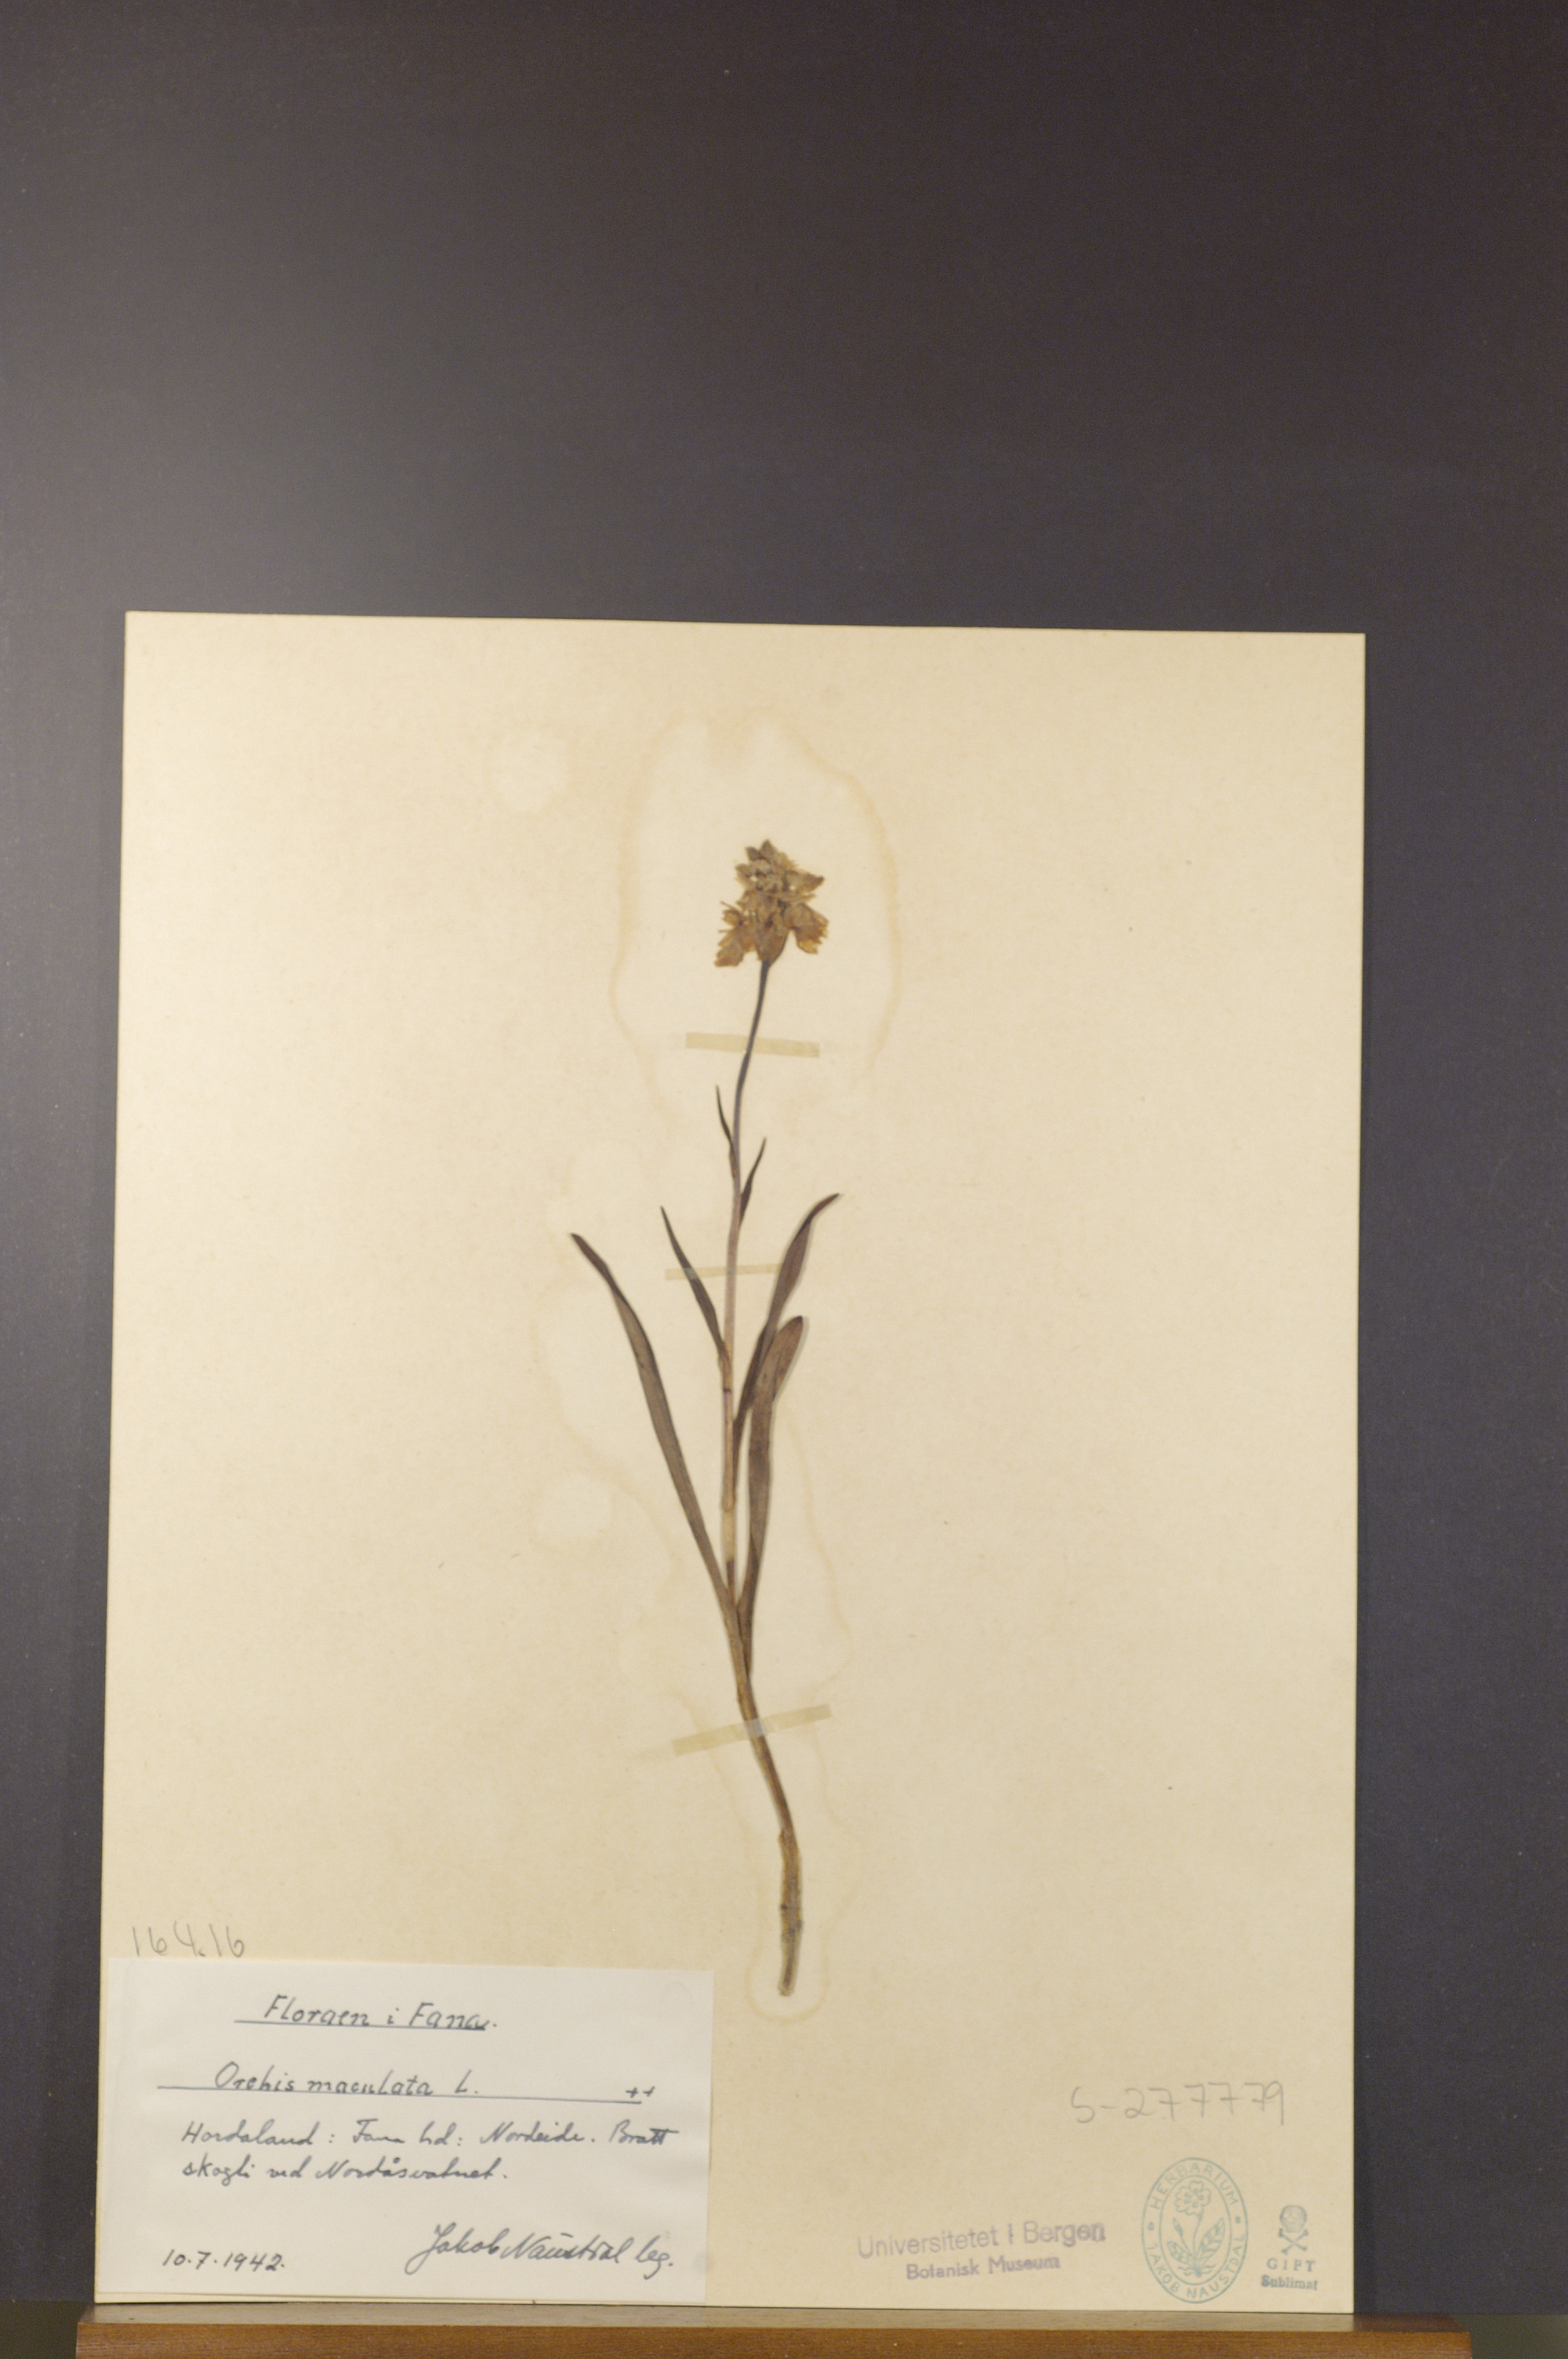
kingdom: Plantae
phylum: Tracheophyta
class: Liliopsida
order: Asparagales
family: Orchidaceae
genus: Dactylorhiza
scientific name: Dactylorhiza maculata
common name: Heath spotted-orchid
